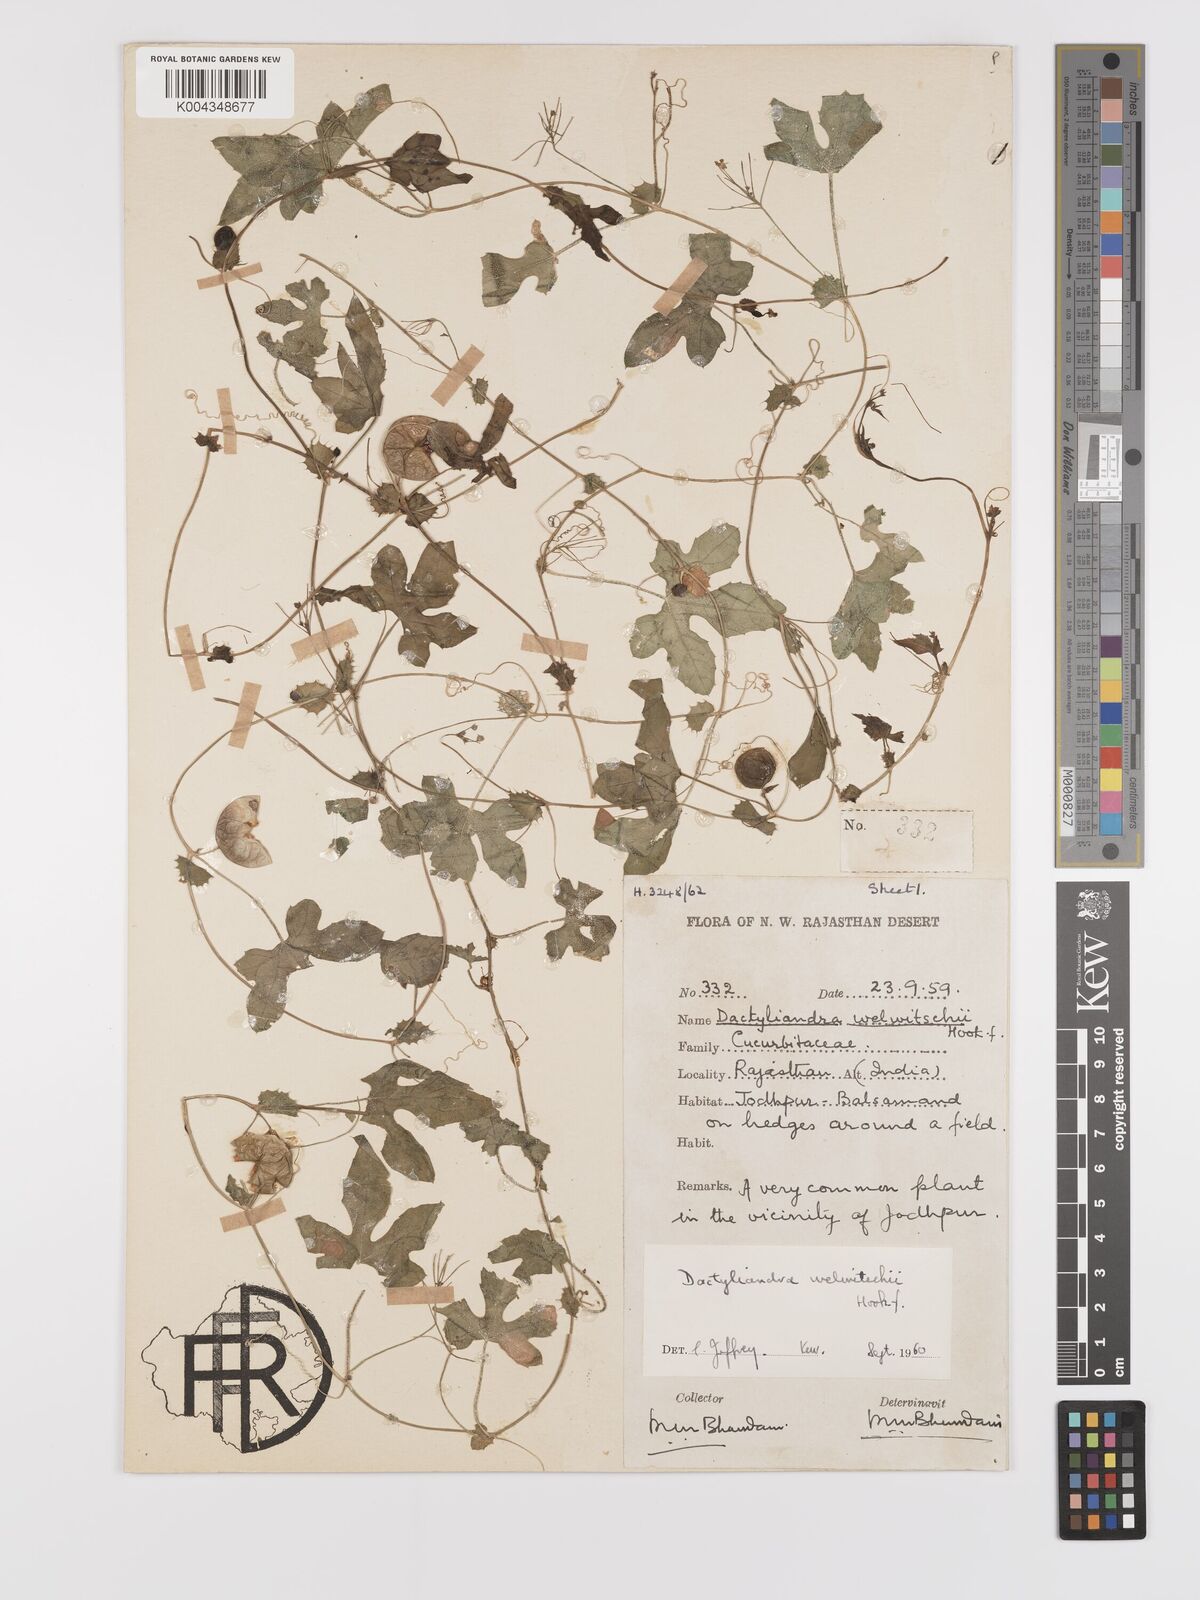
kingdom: Plantae
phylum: Tracheophyta
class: Magnoliopsida
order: Cucurbitales
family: Cucurbitaceae
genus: Dactyliandra
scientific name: Dactyliandra welwitschii
